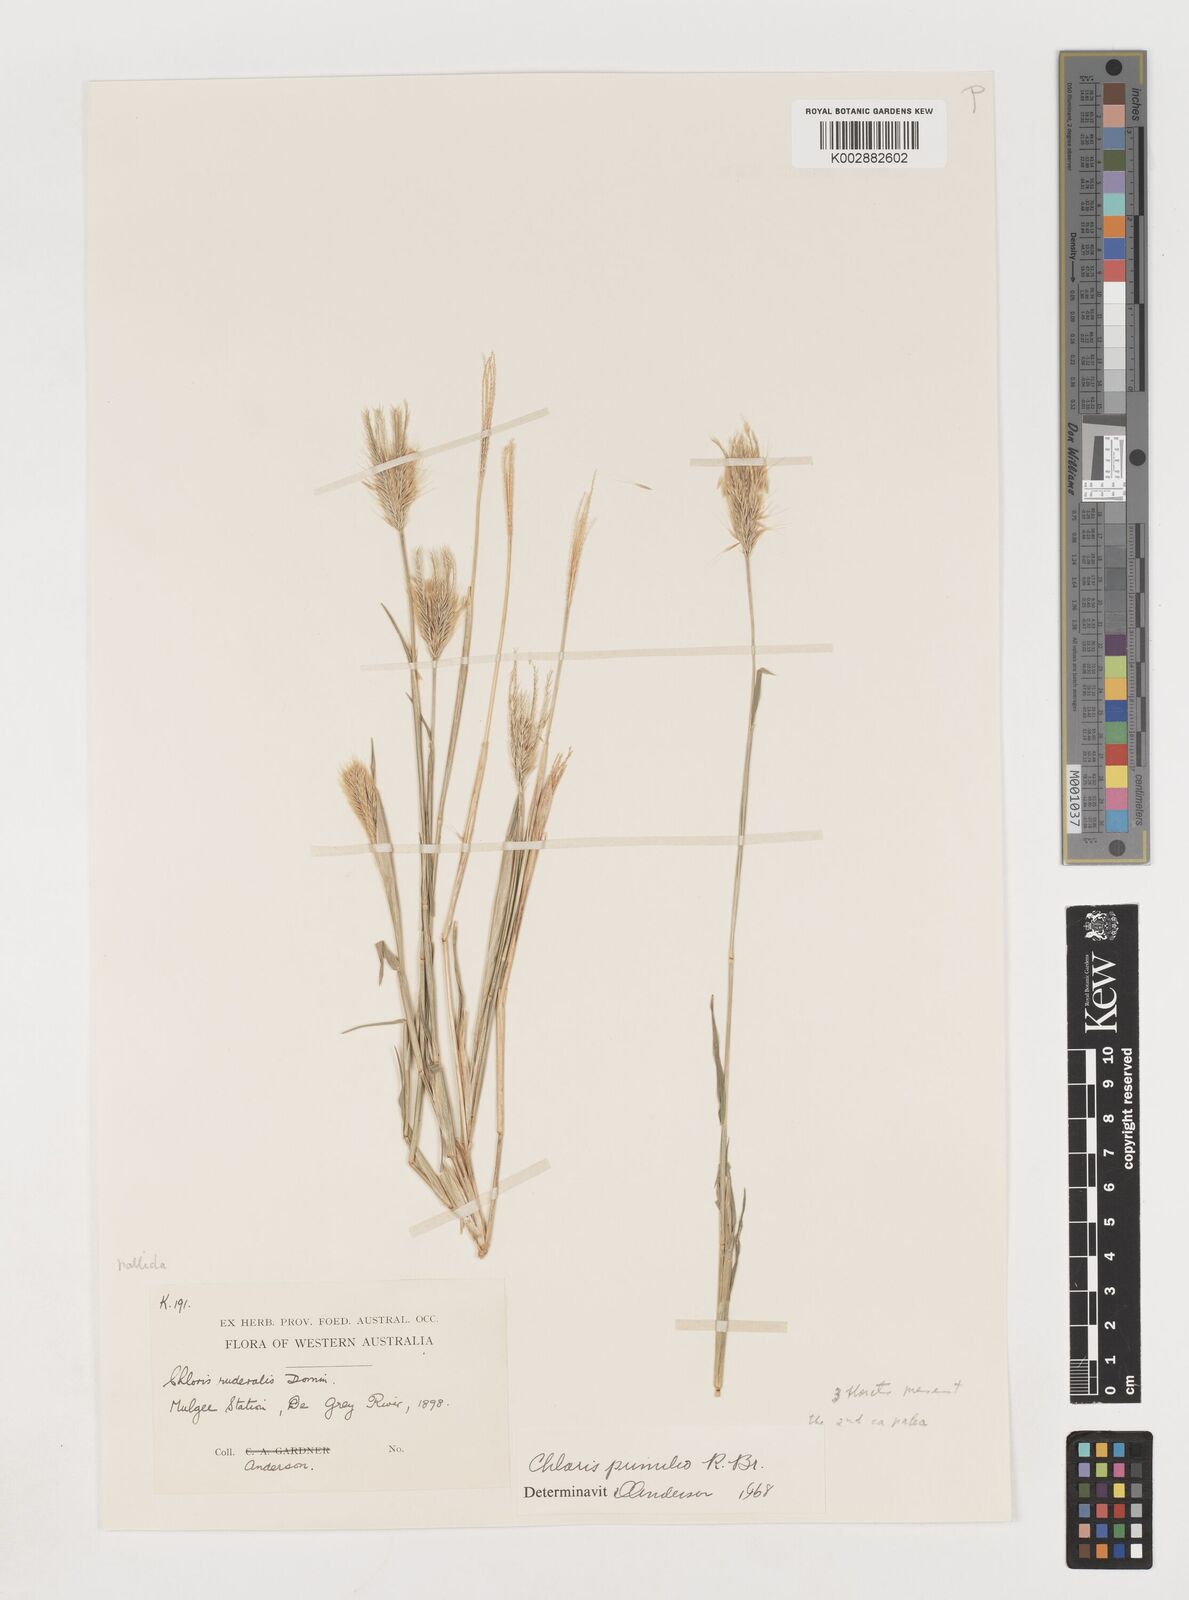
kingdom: Plantae
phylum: Tracheophyta
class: Liliopsida
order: Poales
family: Poaceae
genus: Chloris
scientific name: Chloris pumilio
